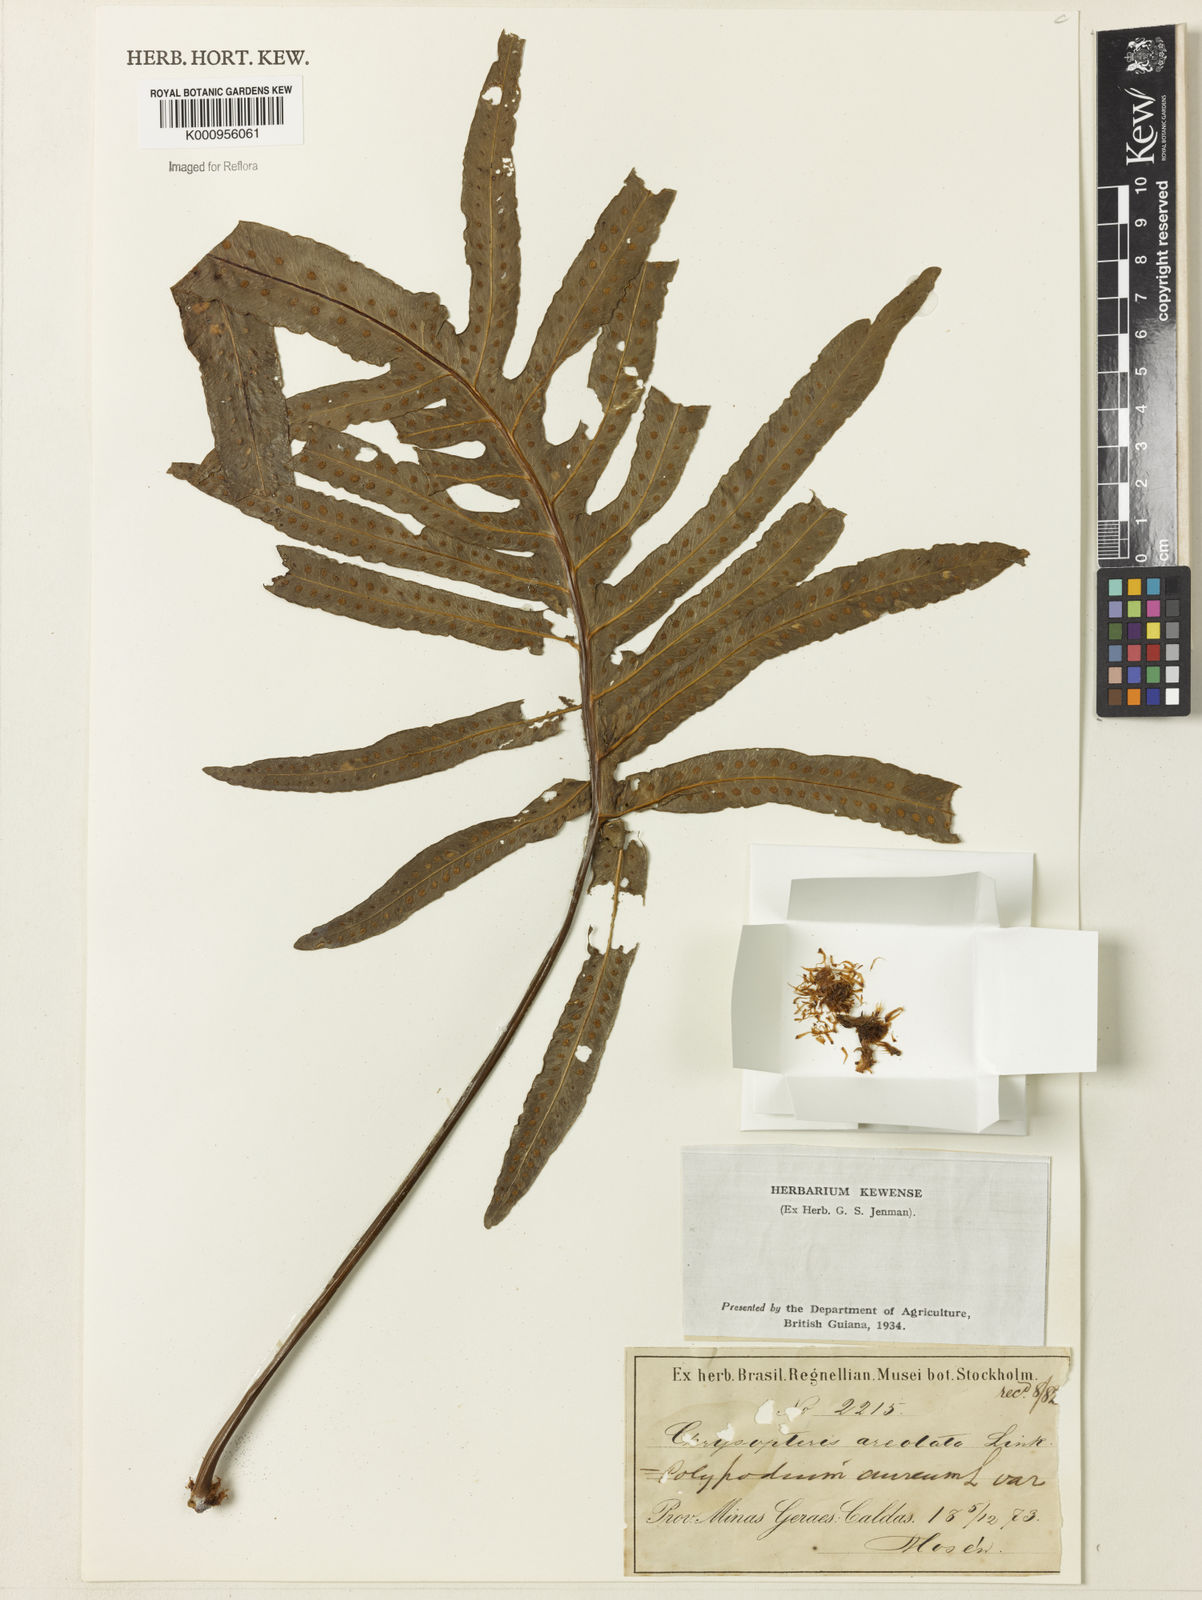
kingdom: Plantae
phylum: Tracheophyta
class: Polypodiopsida
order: Polypodiales
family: Polypodiaceae
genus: Phlebodium
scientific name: Phlebodium aureum
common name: Gold-foot fern
